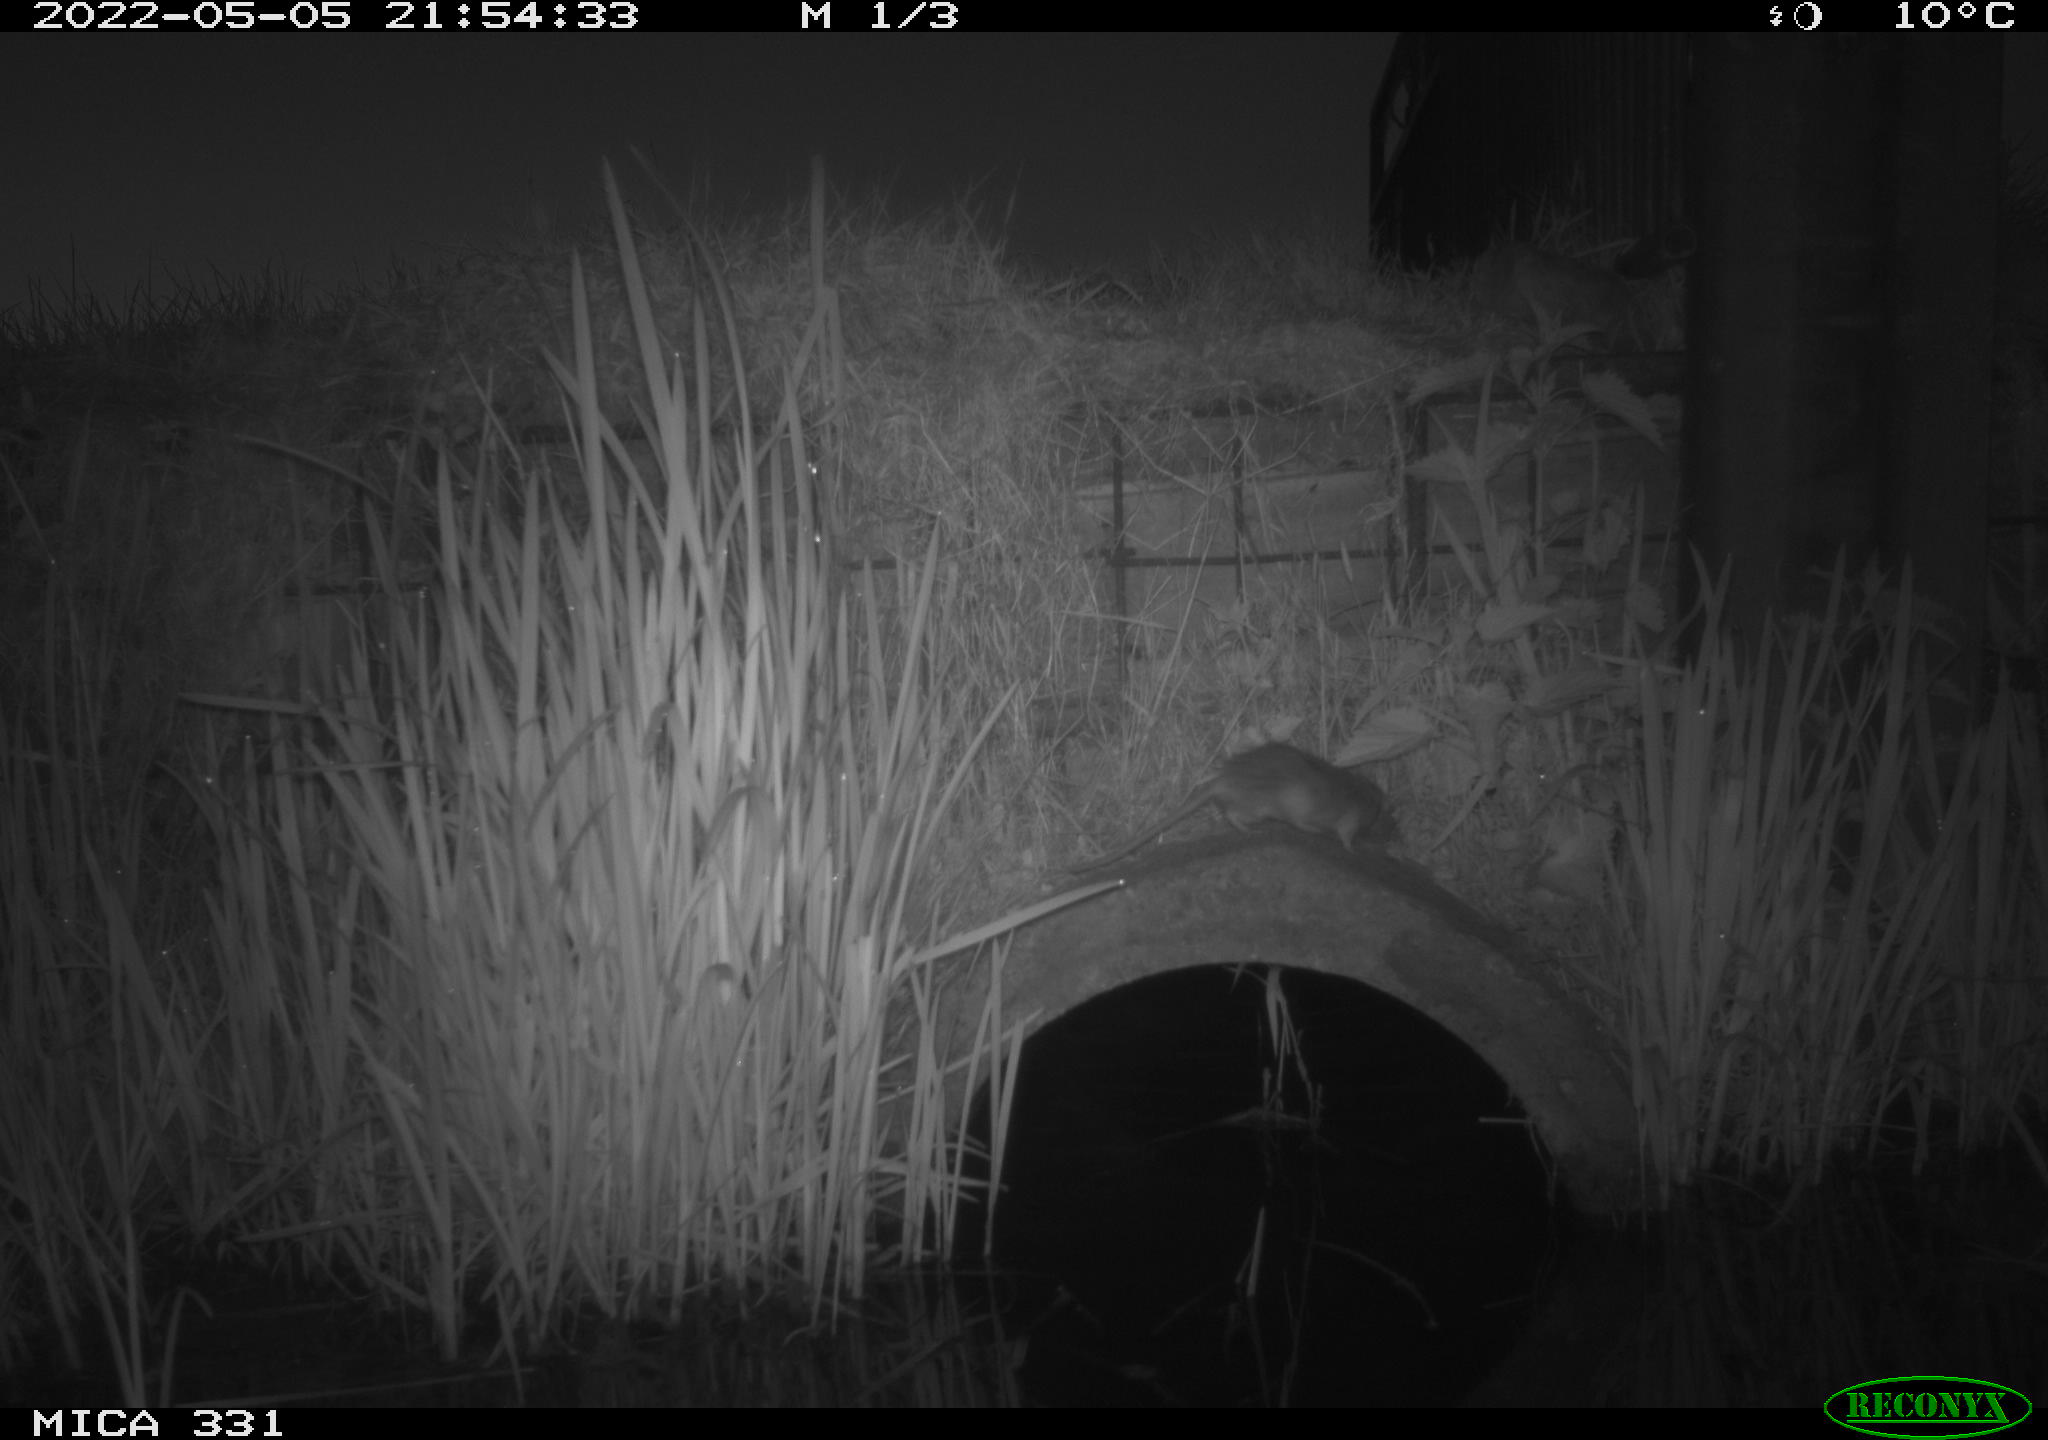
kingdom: Animalia
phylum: Chordata
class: Mammalia
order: Rodentia
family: Muridae
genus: Rattus
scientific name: Rattus norvegicus
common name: Brown rat
